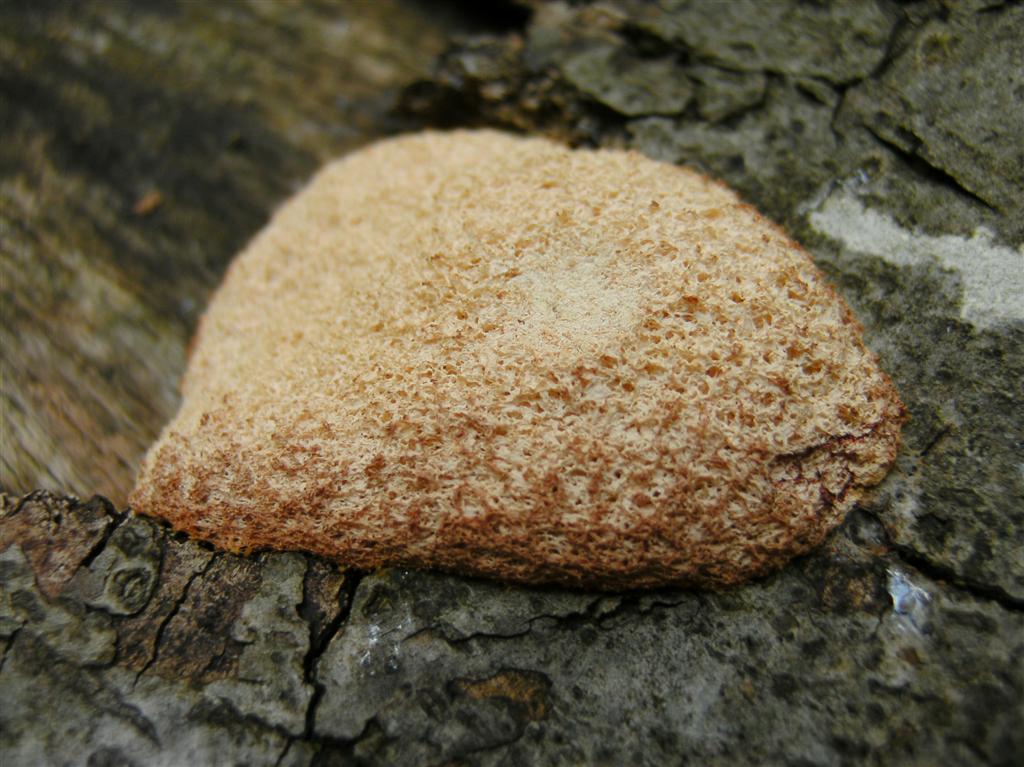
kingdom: Protozoa
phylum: Mycetozoa
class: Myxomycetes
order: Physarales
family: Physaraceae
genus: Fuligo
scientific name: Fuligo septica
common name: Dog vomit slime mold
